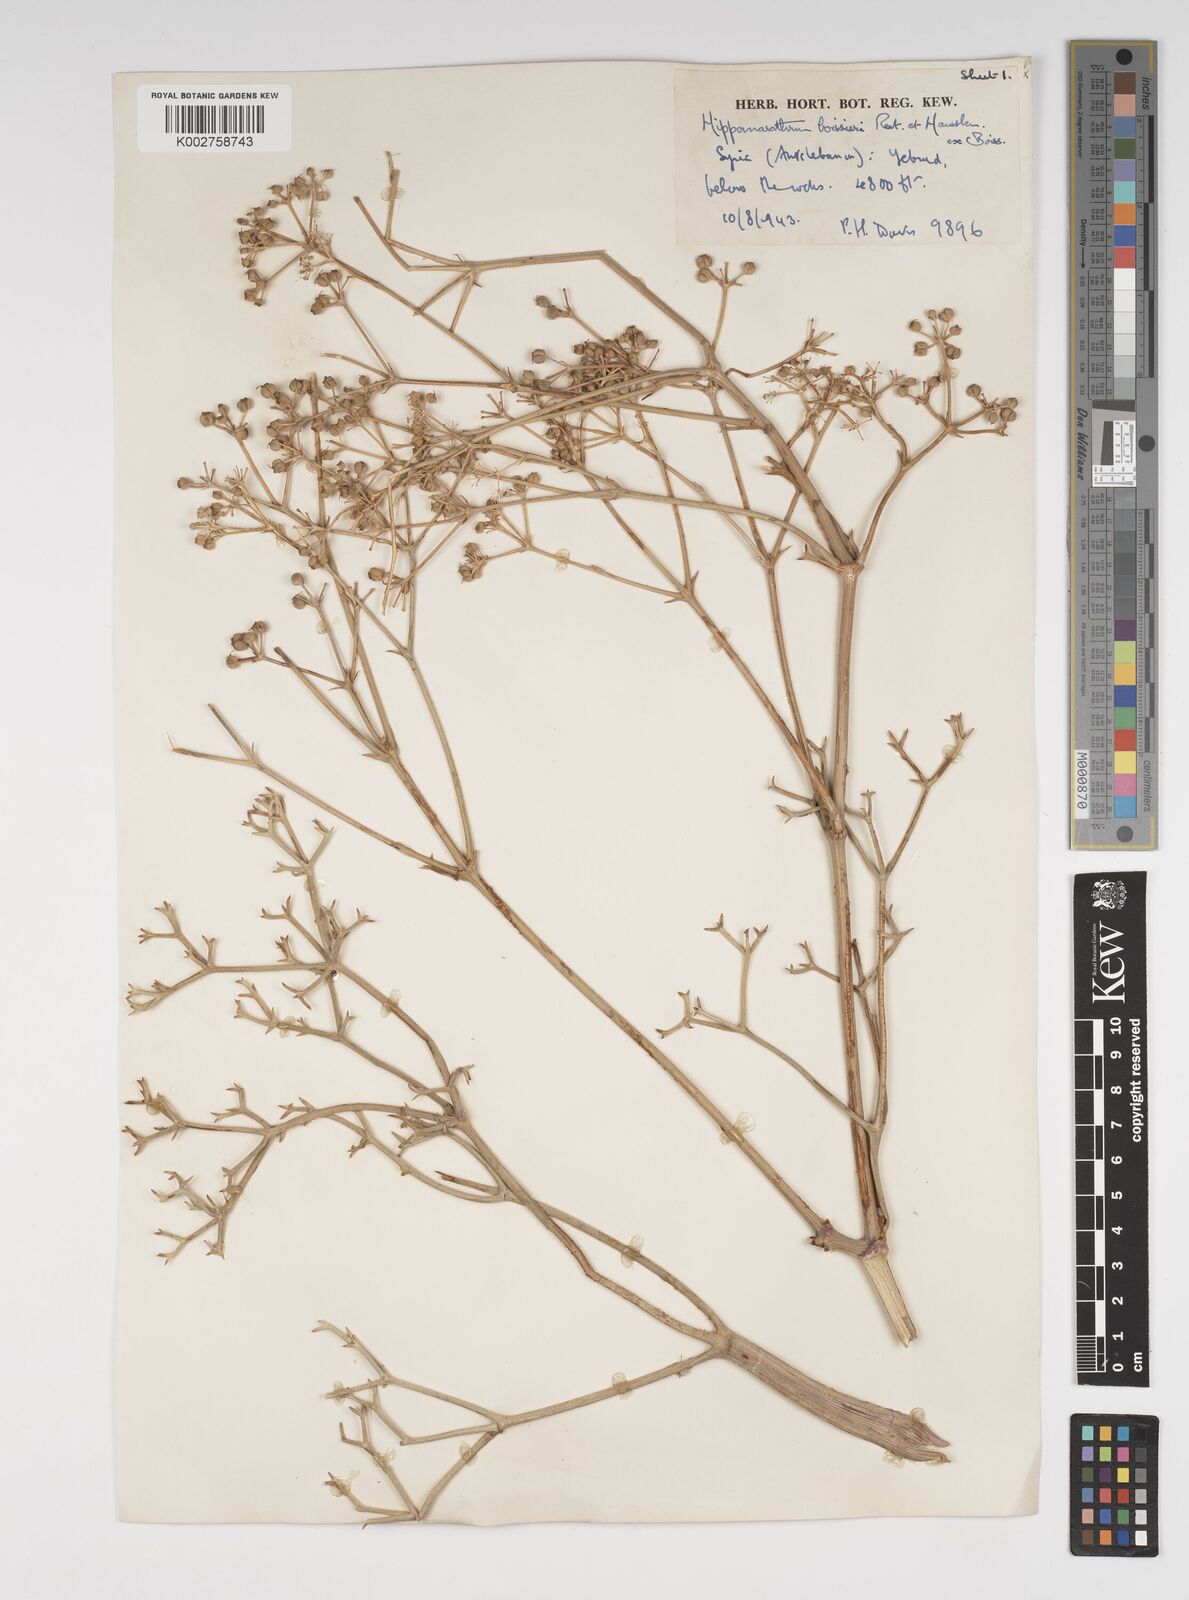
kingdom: Plantae
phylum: Tracheophyta
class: Magnoliopsida
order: Apiales
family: Apiaceae
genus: Cachrys
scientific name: Cachrys boissieri
